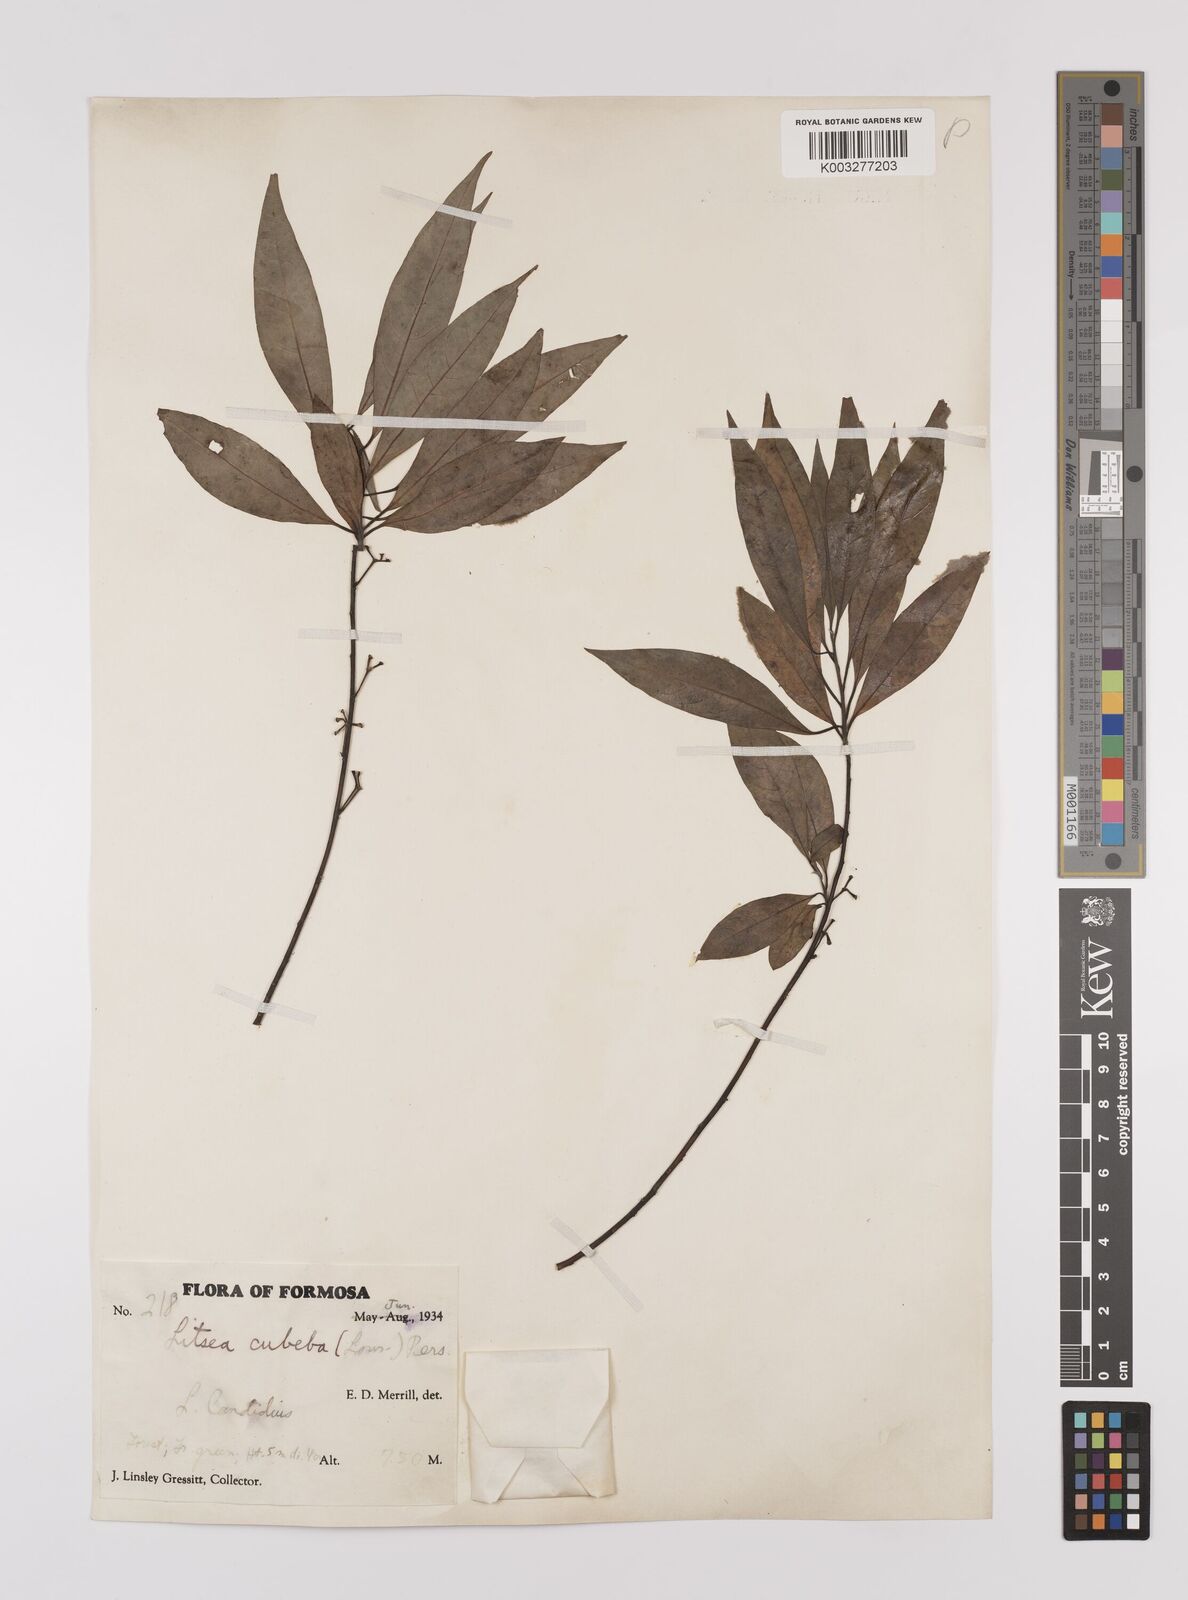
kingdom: Plantae
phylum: Tracheophyta
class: Magnoliopsida
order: Laurales
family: Lauraceae
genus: Litsea
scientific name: Litsea cubeba
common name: Mountain-pepper
